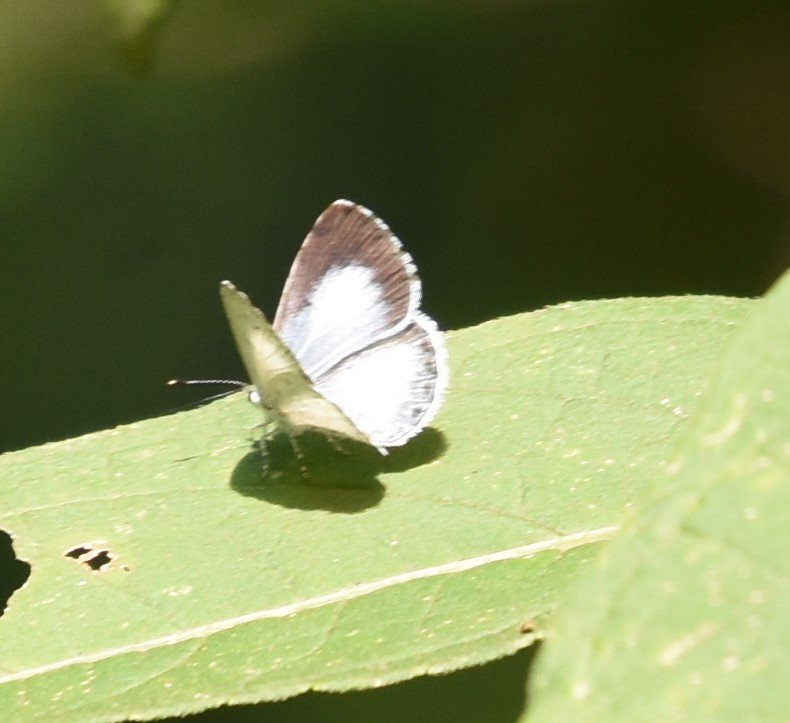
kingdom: Animalia
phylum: Arthropoda
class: Insecta
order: Lepidoptera
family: Lycaenidae
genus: Cyaniris
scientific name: Cyaniris neglecta
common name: Summer Azure
